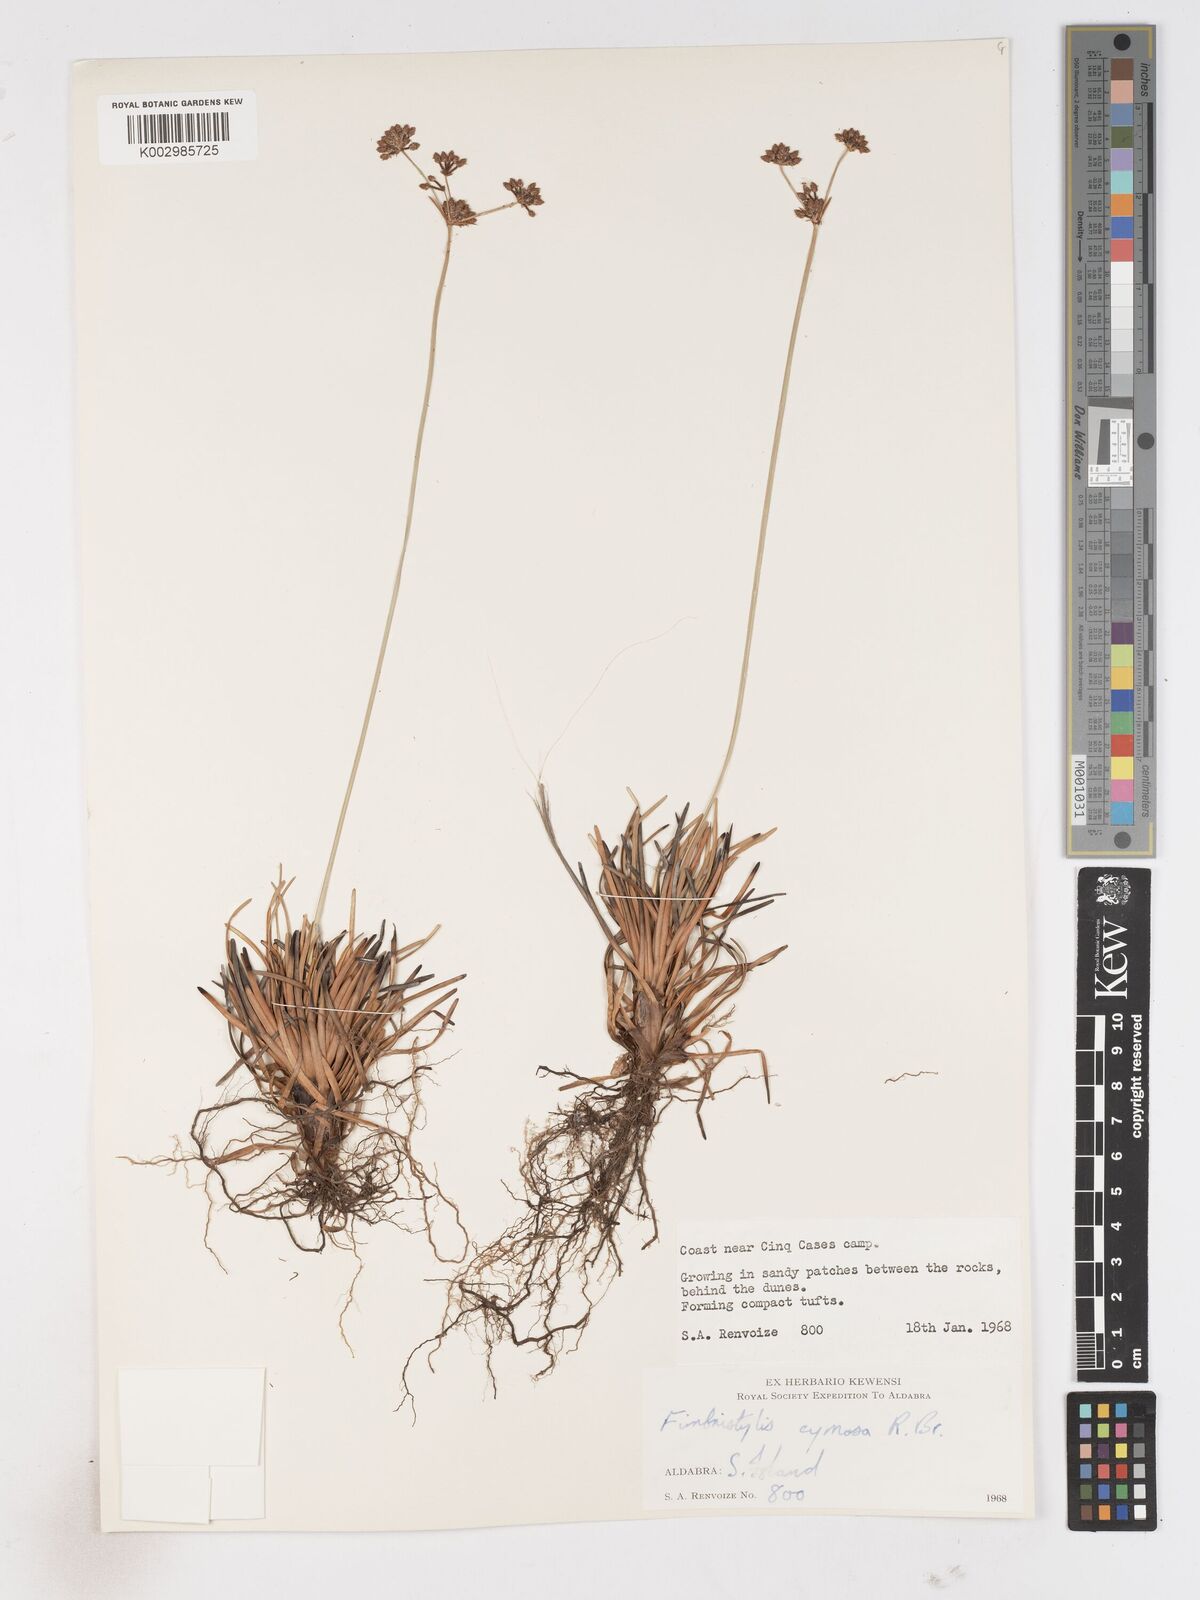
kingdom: Plantae
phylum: Tracheophyta
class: Liliopsida
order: Poales
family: Cyperaceae
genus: Fimbristylis
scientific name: Fimbristylis cymosa
